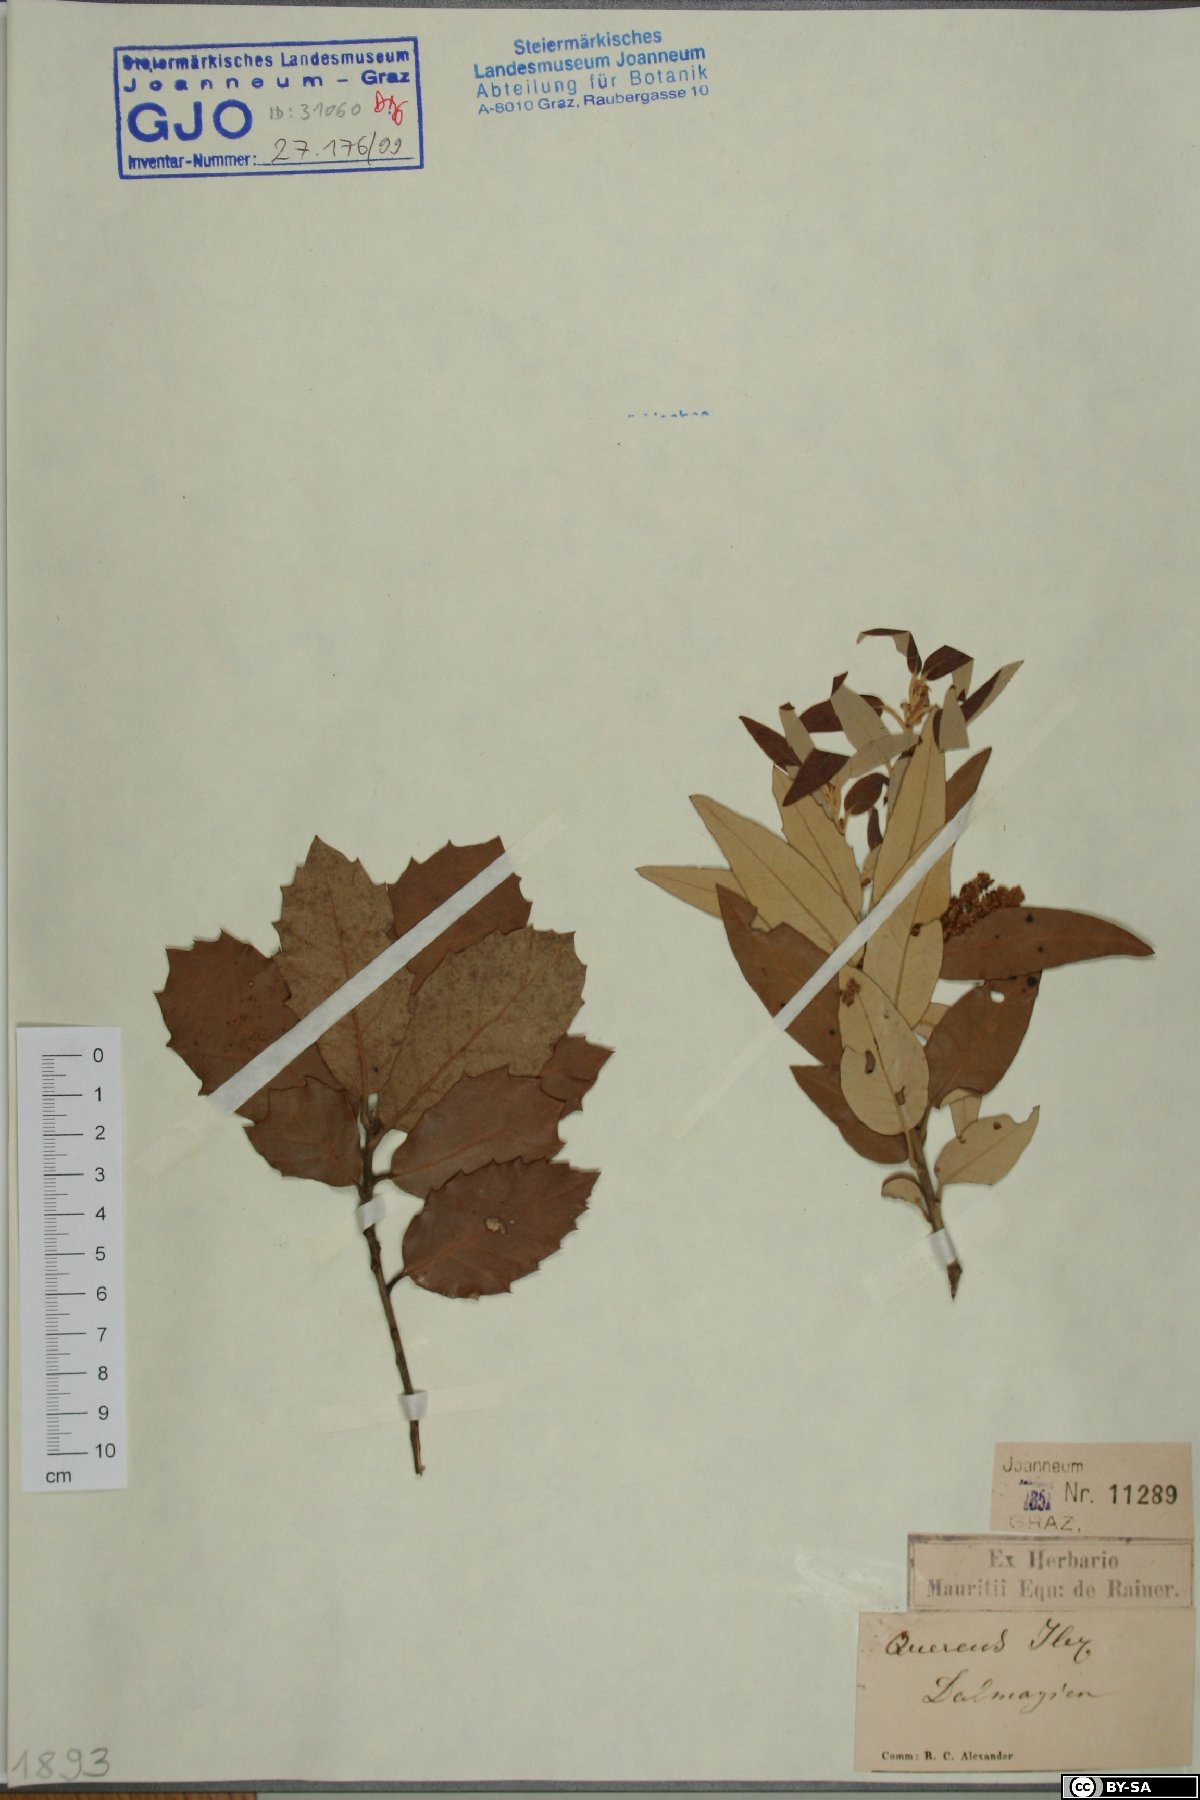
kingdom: Plantae
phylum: Tracheophyta
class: Magnoliopsida
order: Fagales
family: Fagaceae
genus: Quercus
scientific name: Quercus ilex
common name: Evergreen oak
